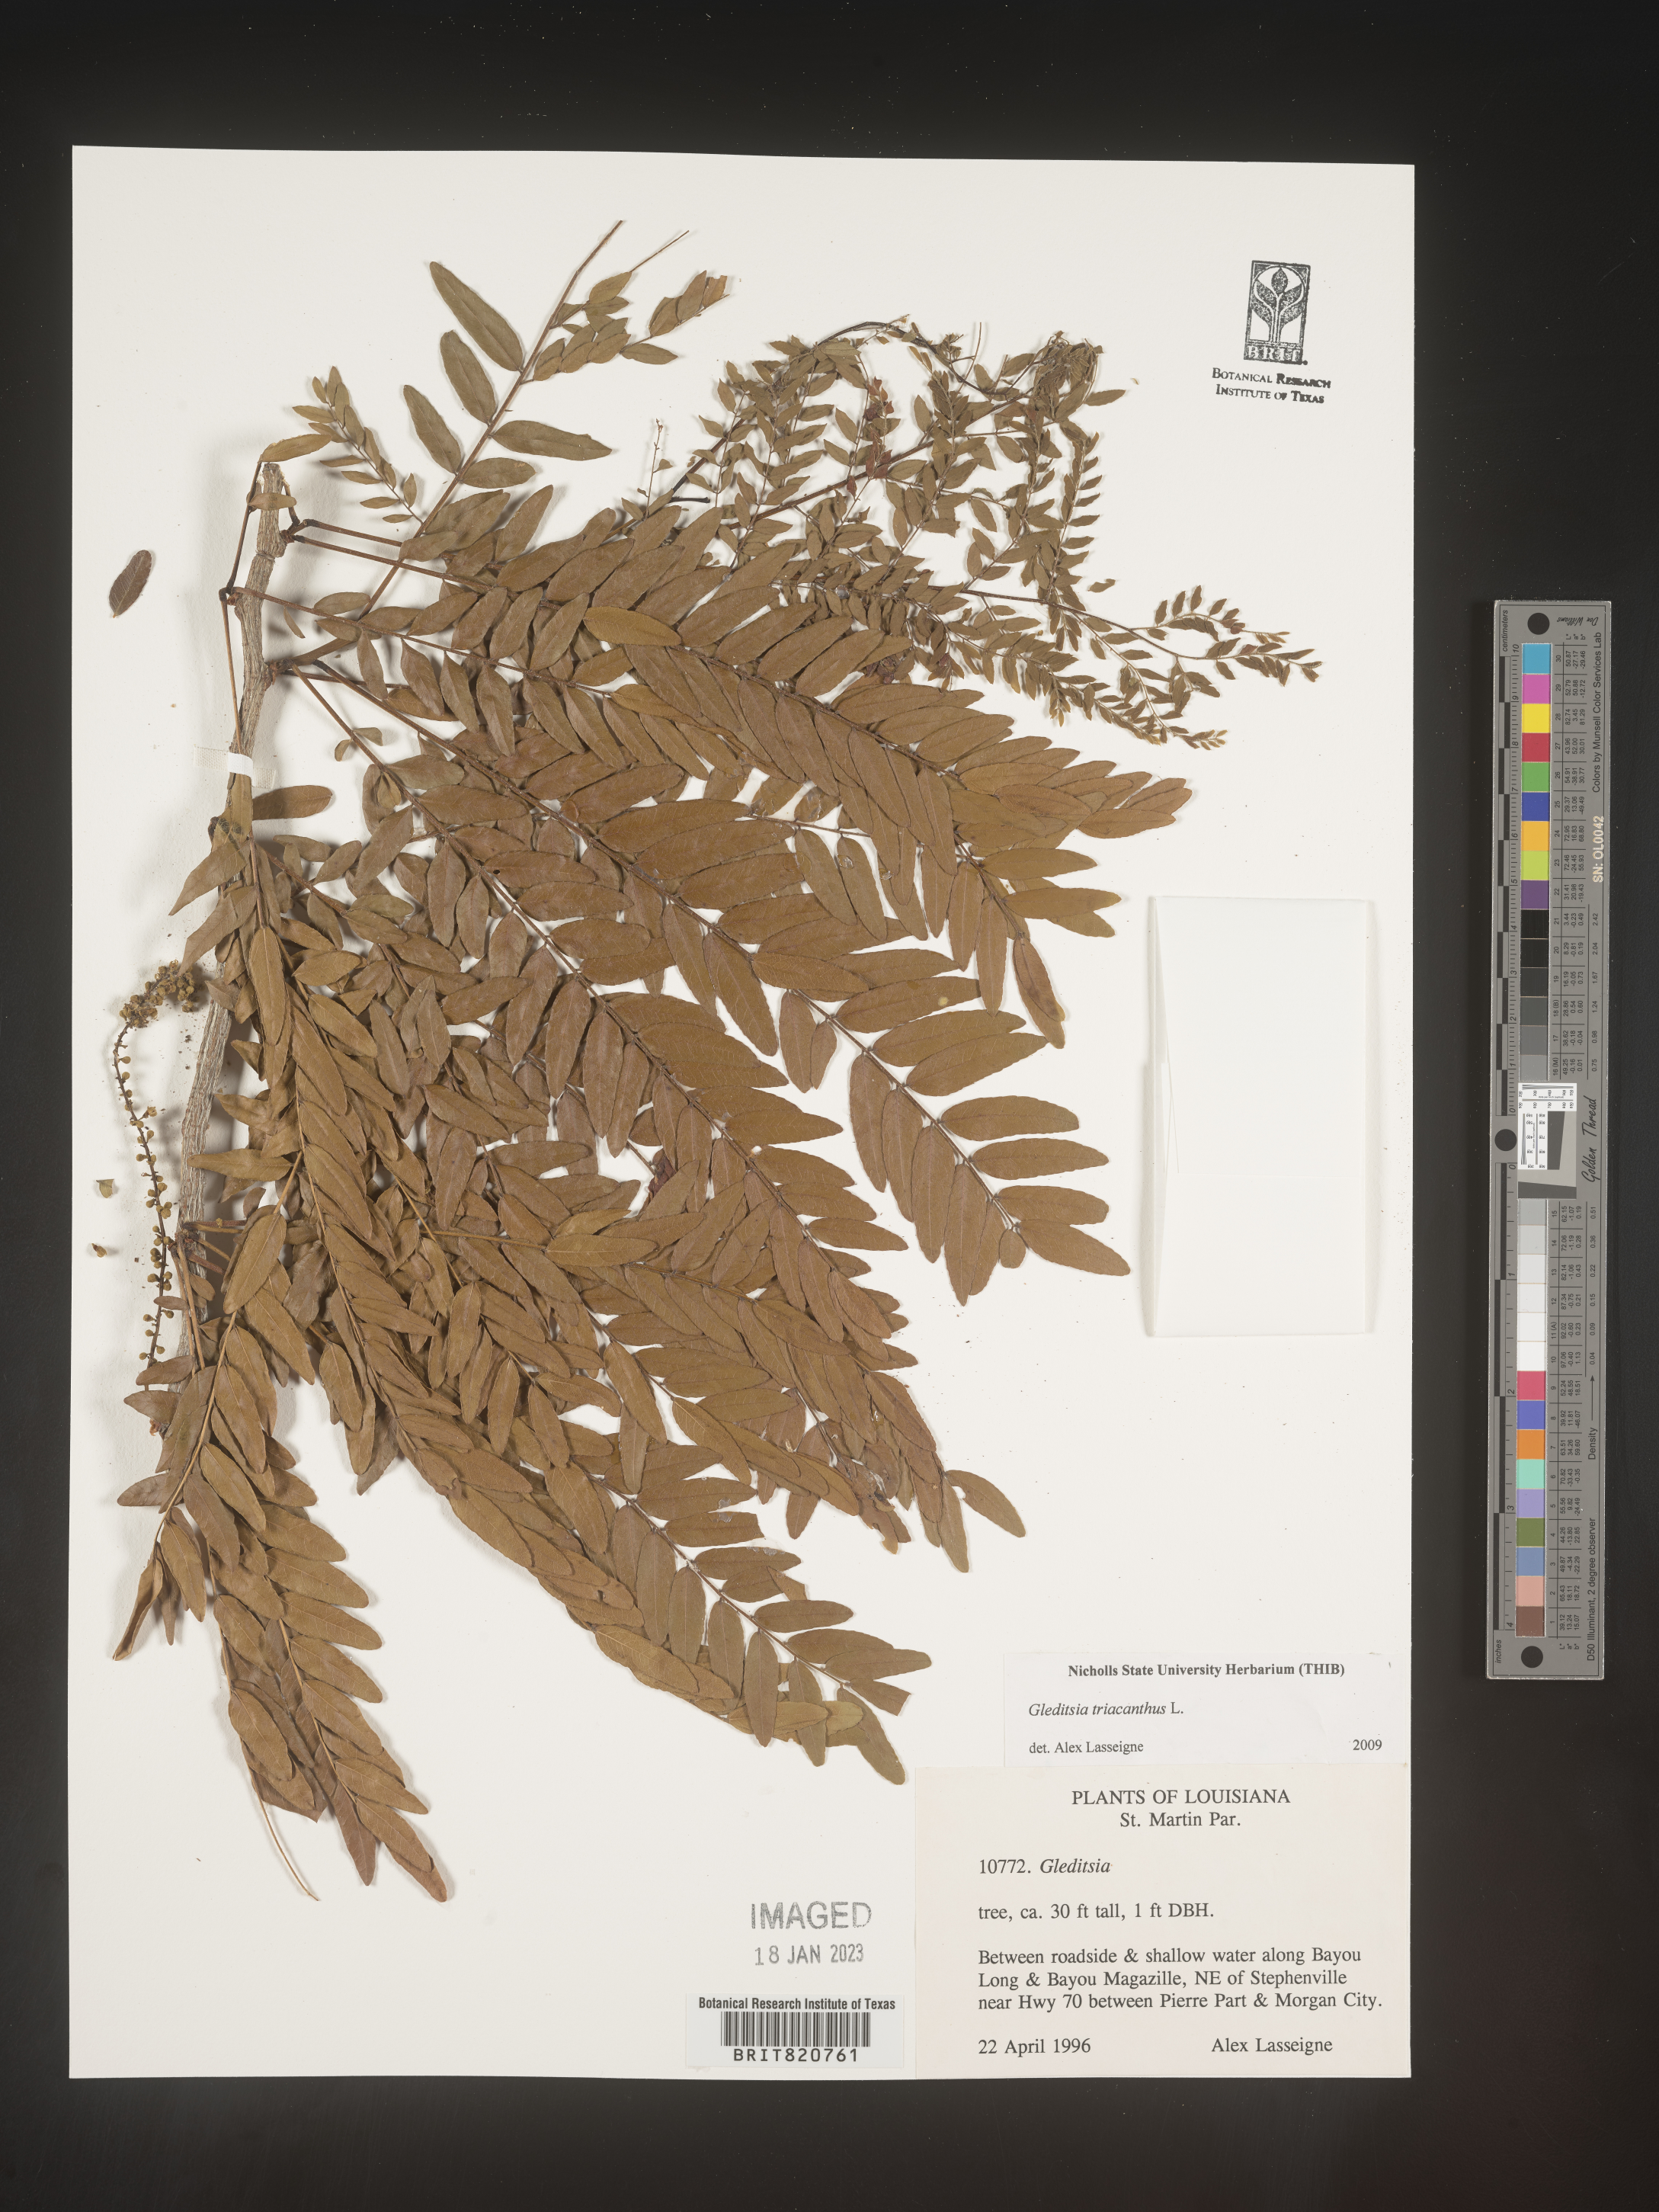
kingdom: Plantae
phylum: Tracheophyta
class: Magnoliopsida
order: Fabales
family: Fabaceae
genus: Gleditsia
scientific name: Gleditsia triacanthos
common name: Common honeylocust
